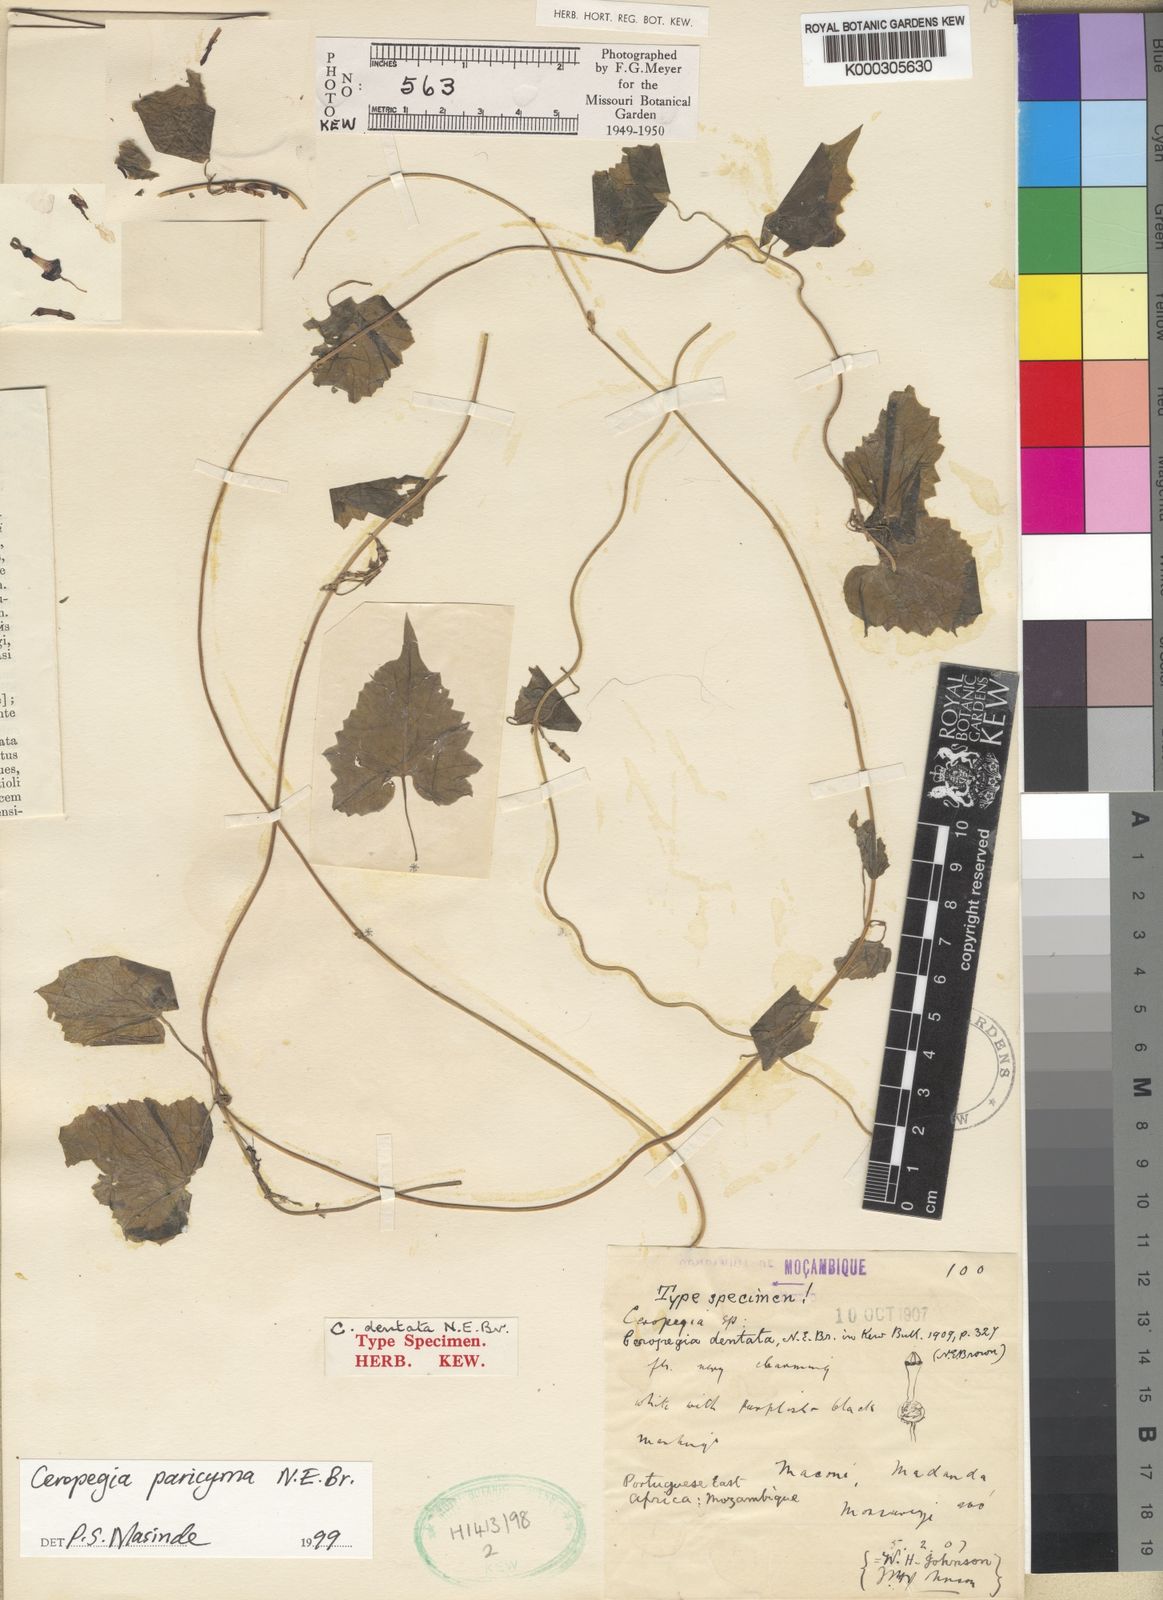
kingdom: Plantae
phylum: Tracheophyta
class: Magnoliopsida
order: Gentianales
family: Apocynaceae
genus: Ceropegia
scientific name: Ceropegia paricyma
